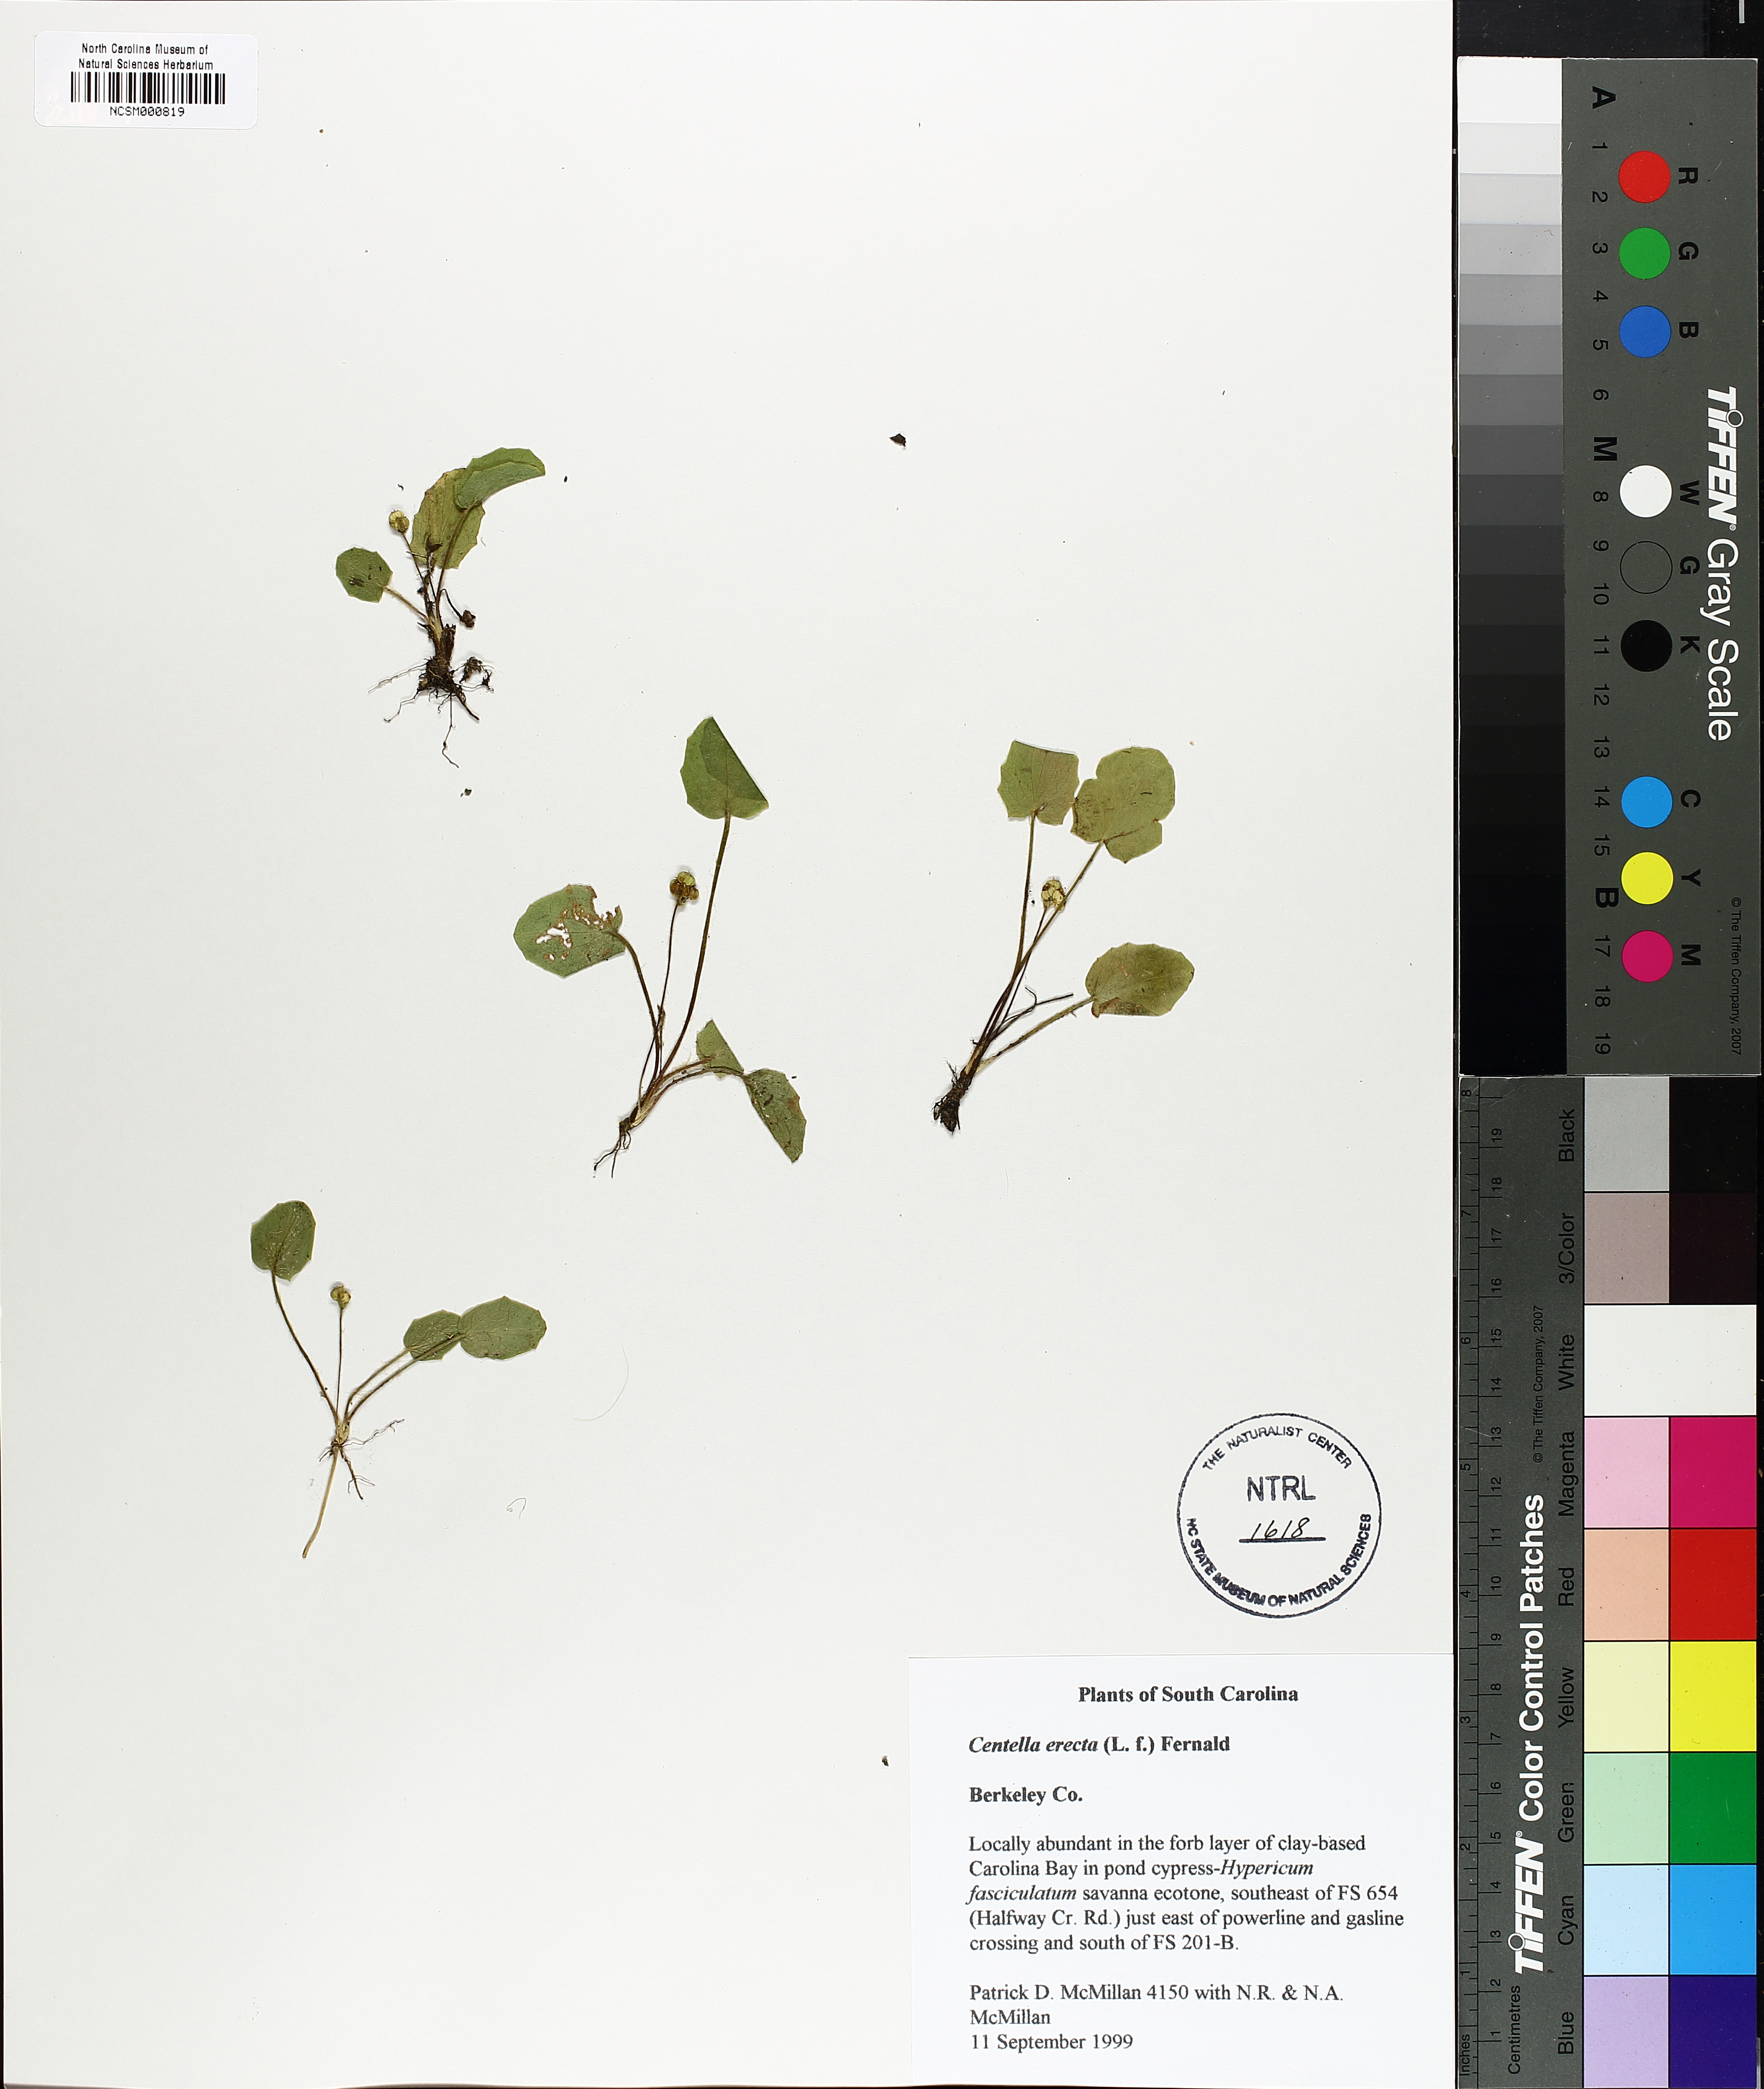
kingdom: Plantae
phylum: Tracheophyta
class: Magnoliopsida
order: Apiales
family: Apiaceae
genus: Centella
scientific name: Centella erecta
